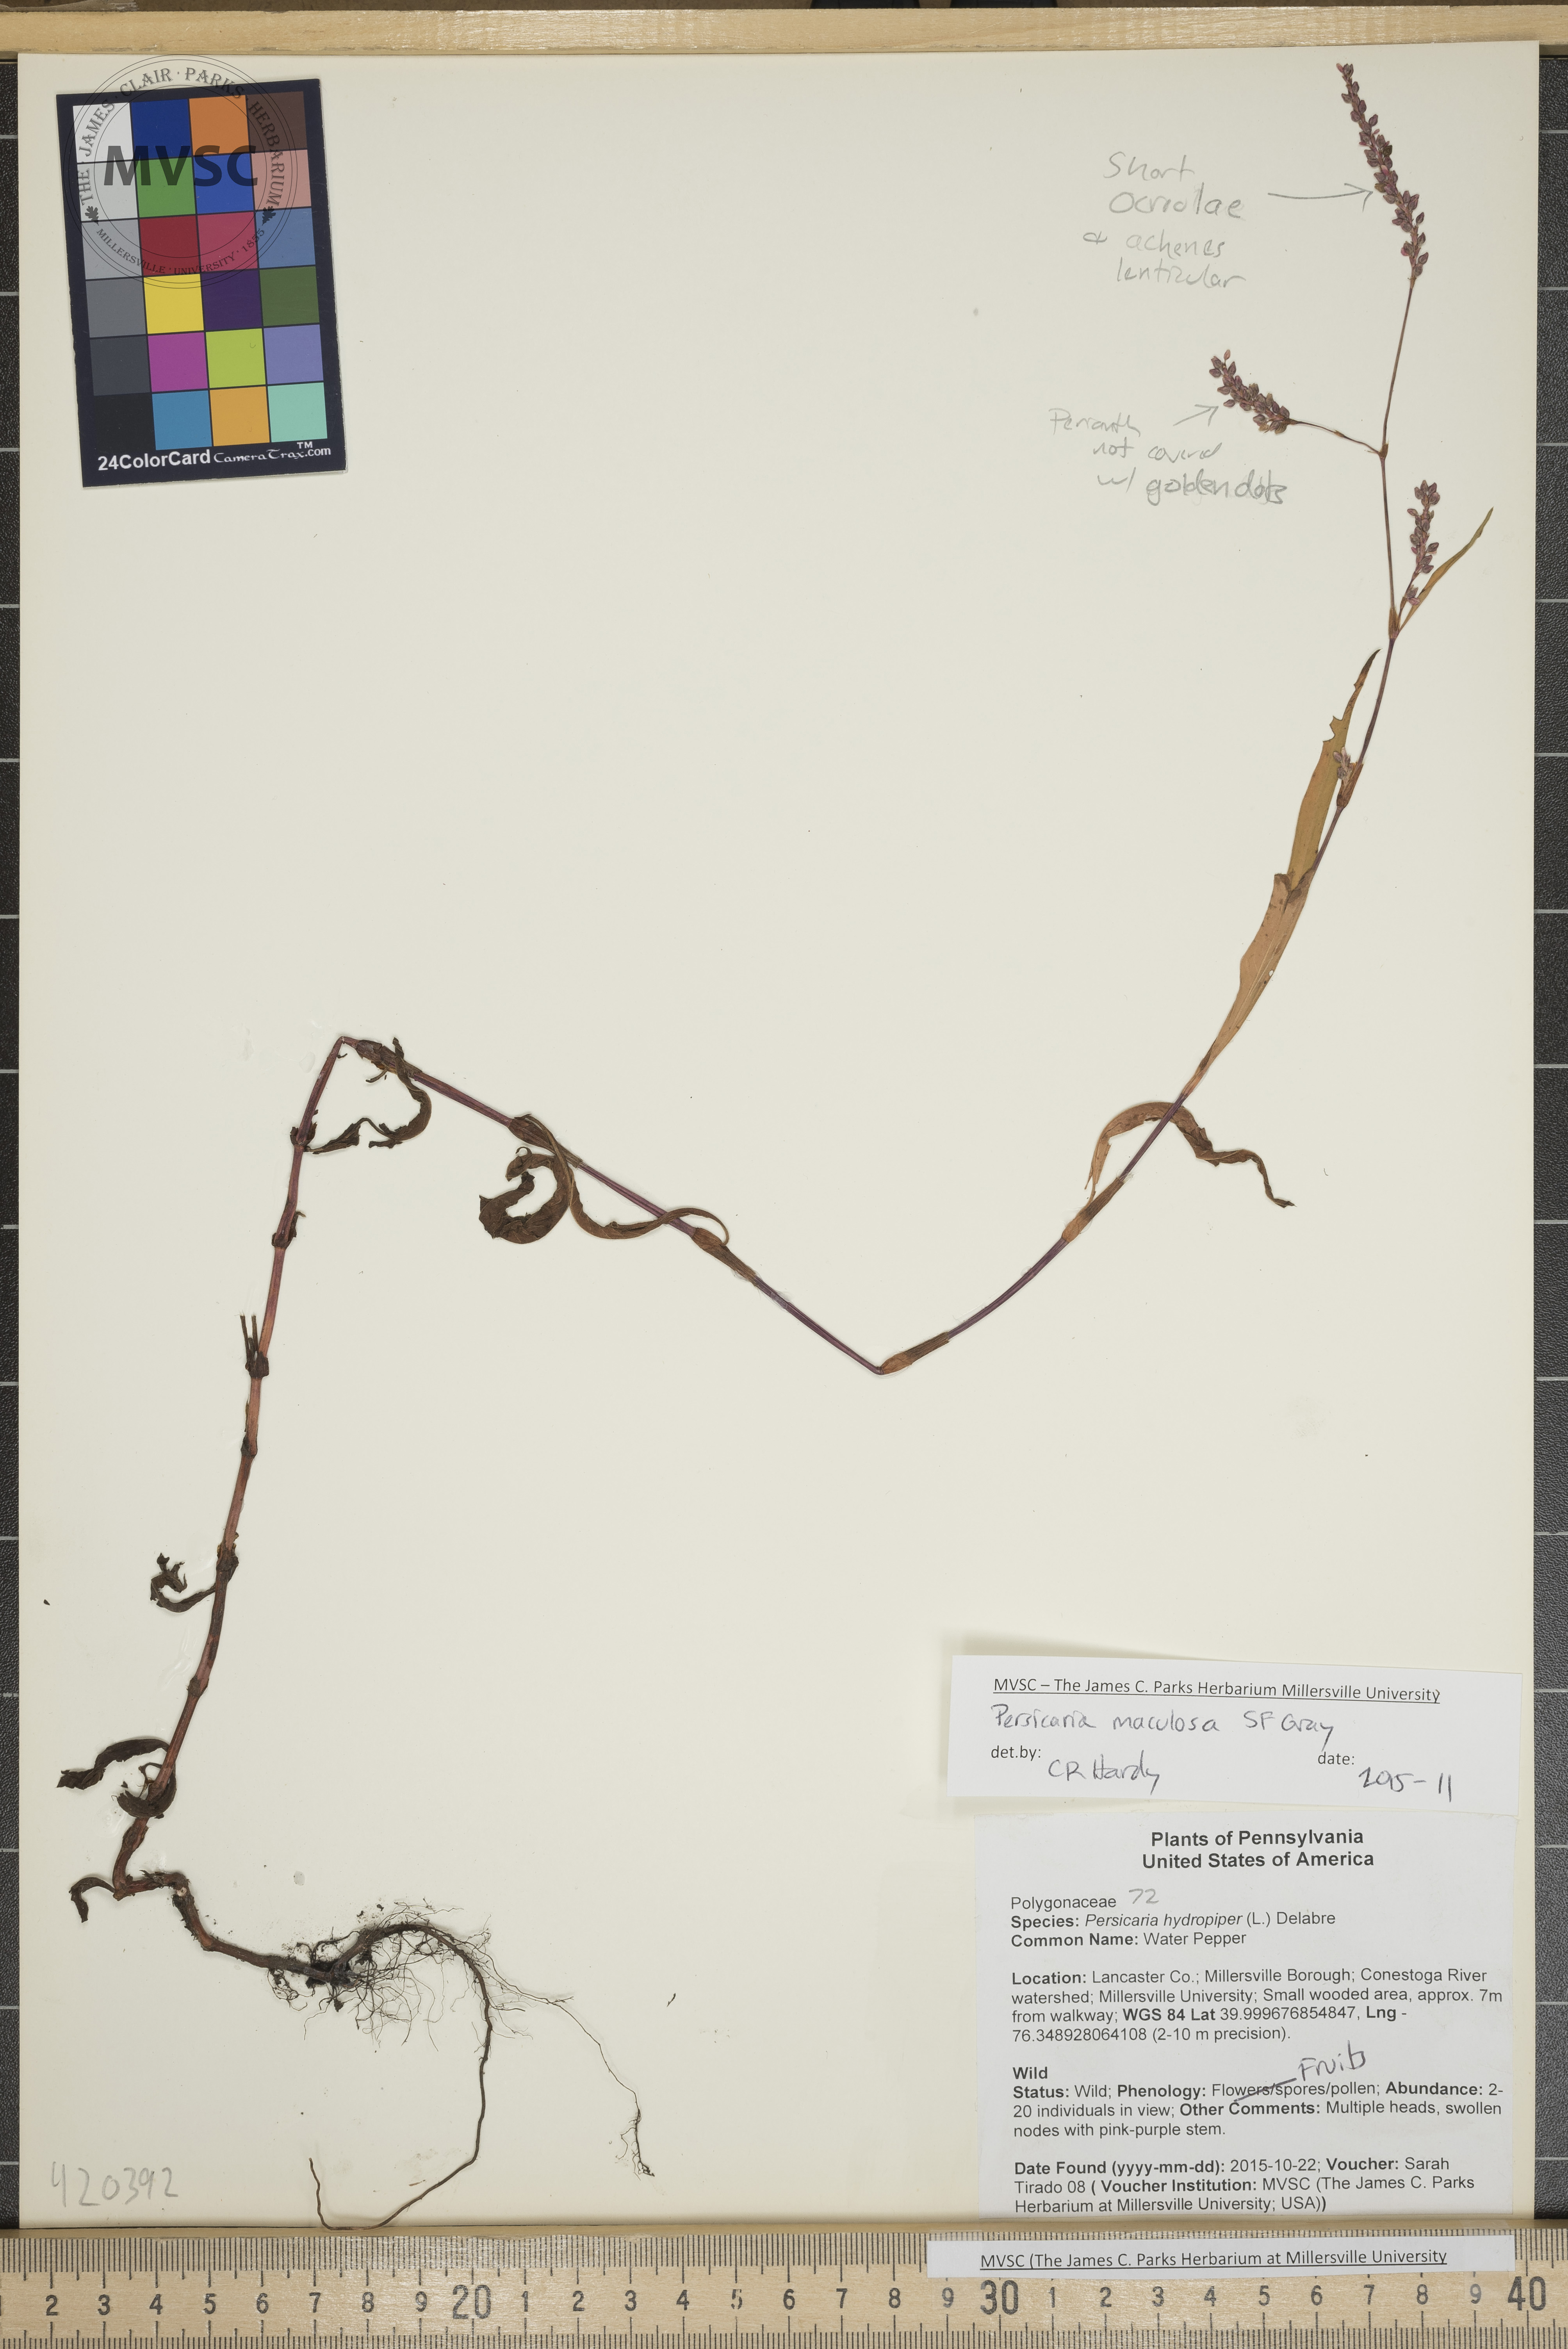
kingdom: Plantae
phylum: Tracheophyta
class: Magnoliopsida
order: Caryophyllales
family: Polygonaceae
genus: Persicaria
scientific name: Persicaria maculosa
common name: Smartweed
